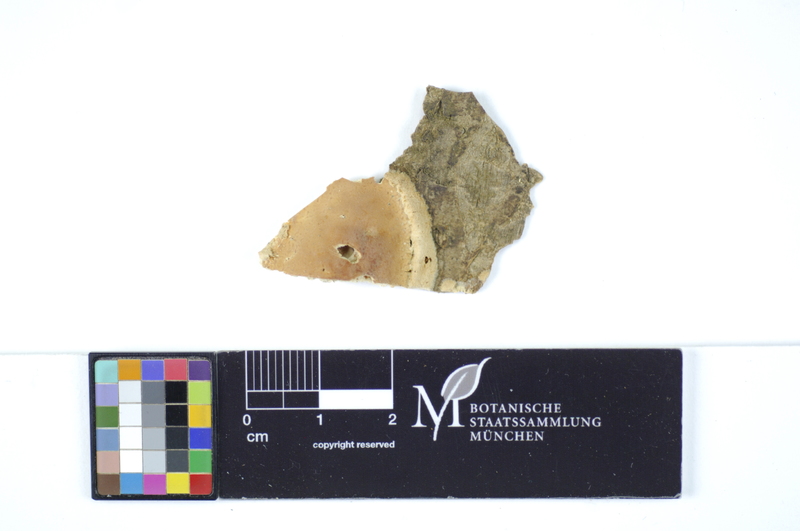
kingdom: Plantae
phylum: Tracheophyta
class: Magnoliopsida
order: Fagales
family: Fagaceae
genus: Fagus
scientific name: Fagus sylvatica
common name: Beech
